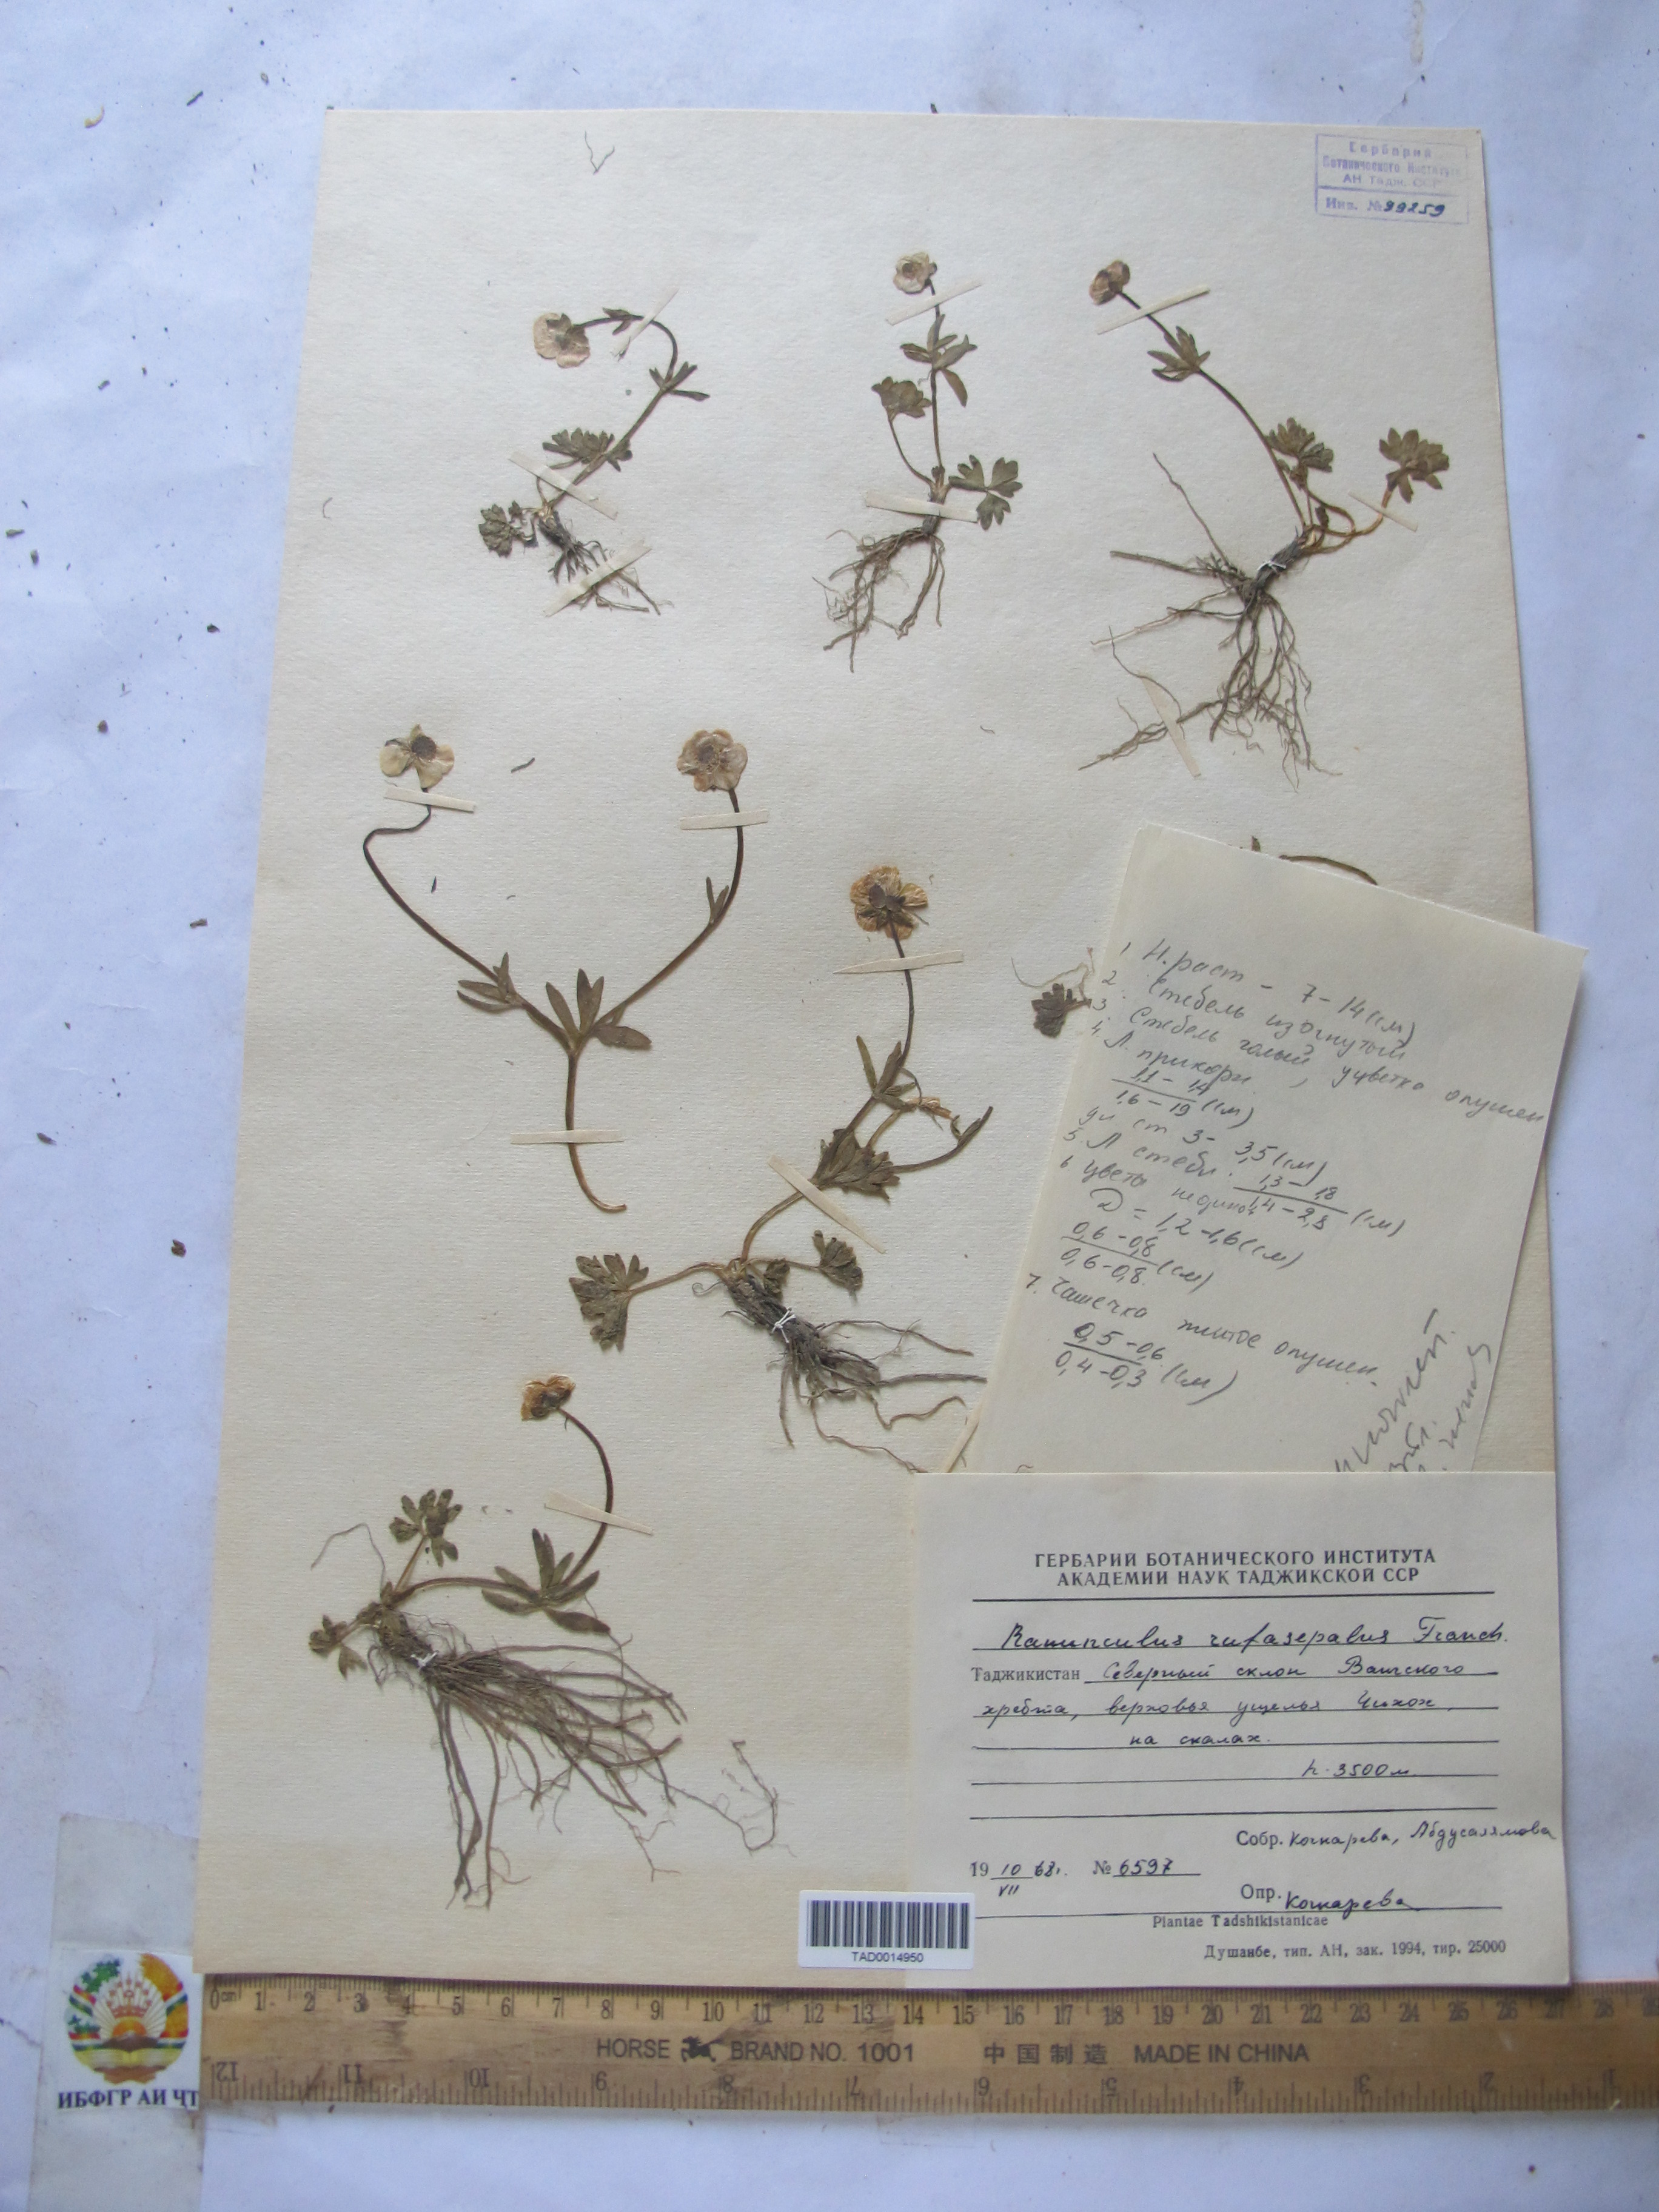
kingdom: Plantae
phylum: Tracheophyta
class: Magnoliopsida
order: Ranunculales
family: Ranunculaceae
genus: Ranunculus
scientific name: Ranunculus rufosepalus
